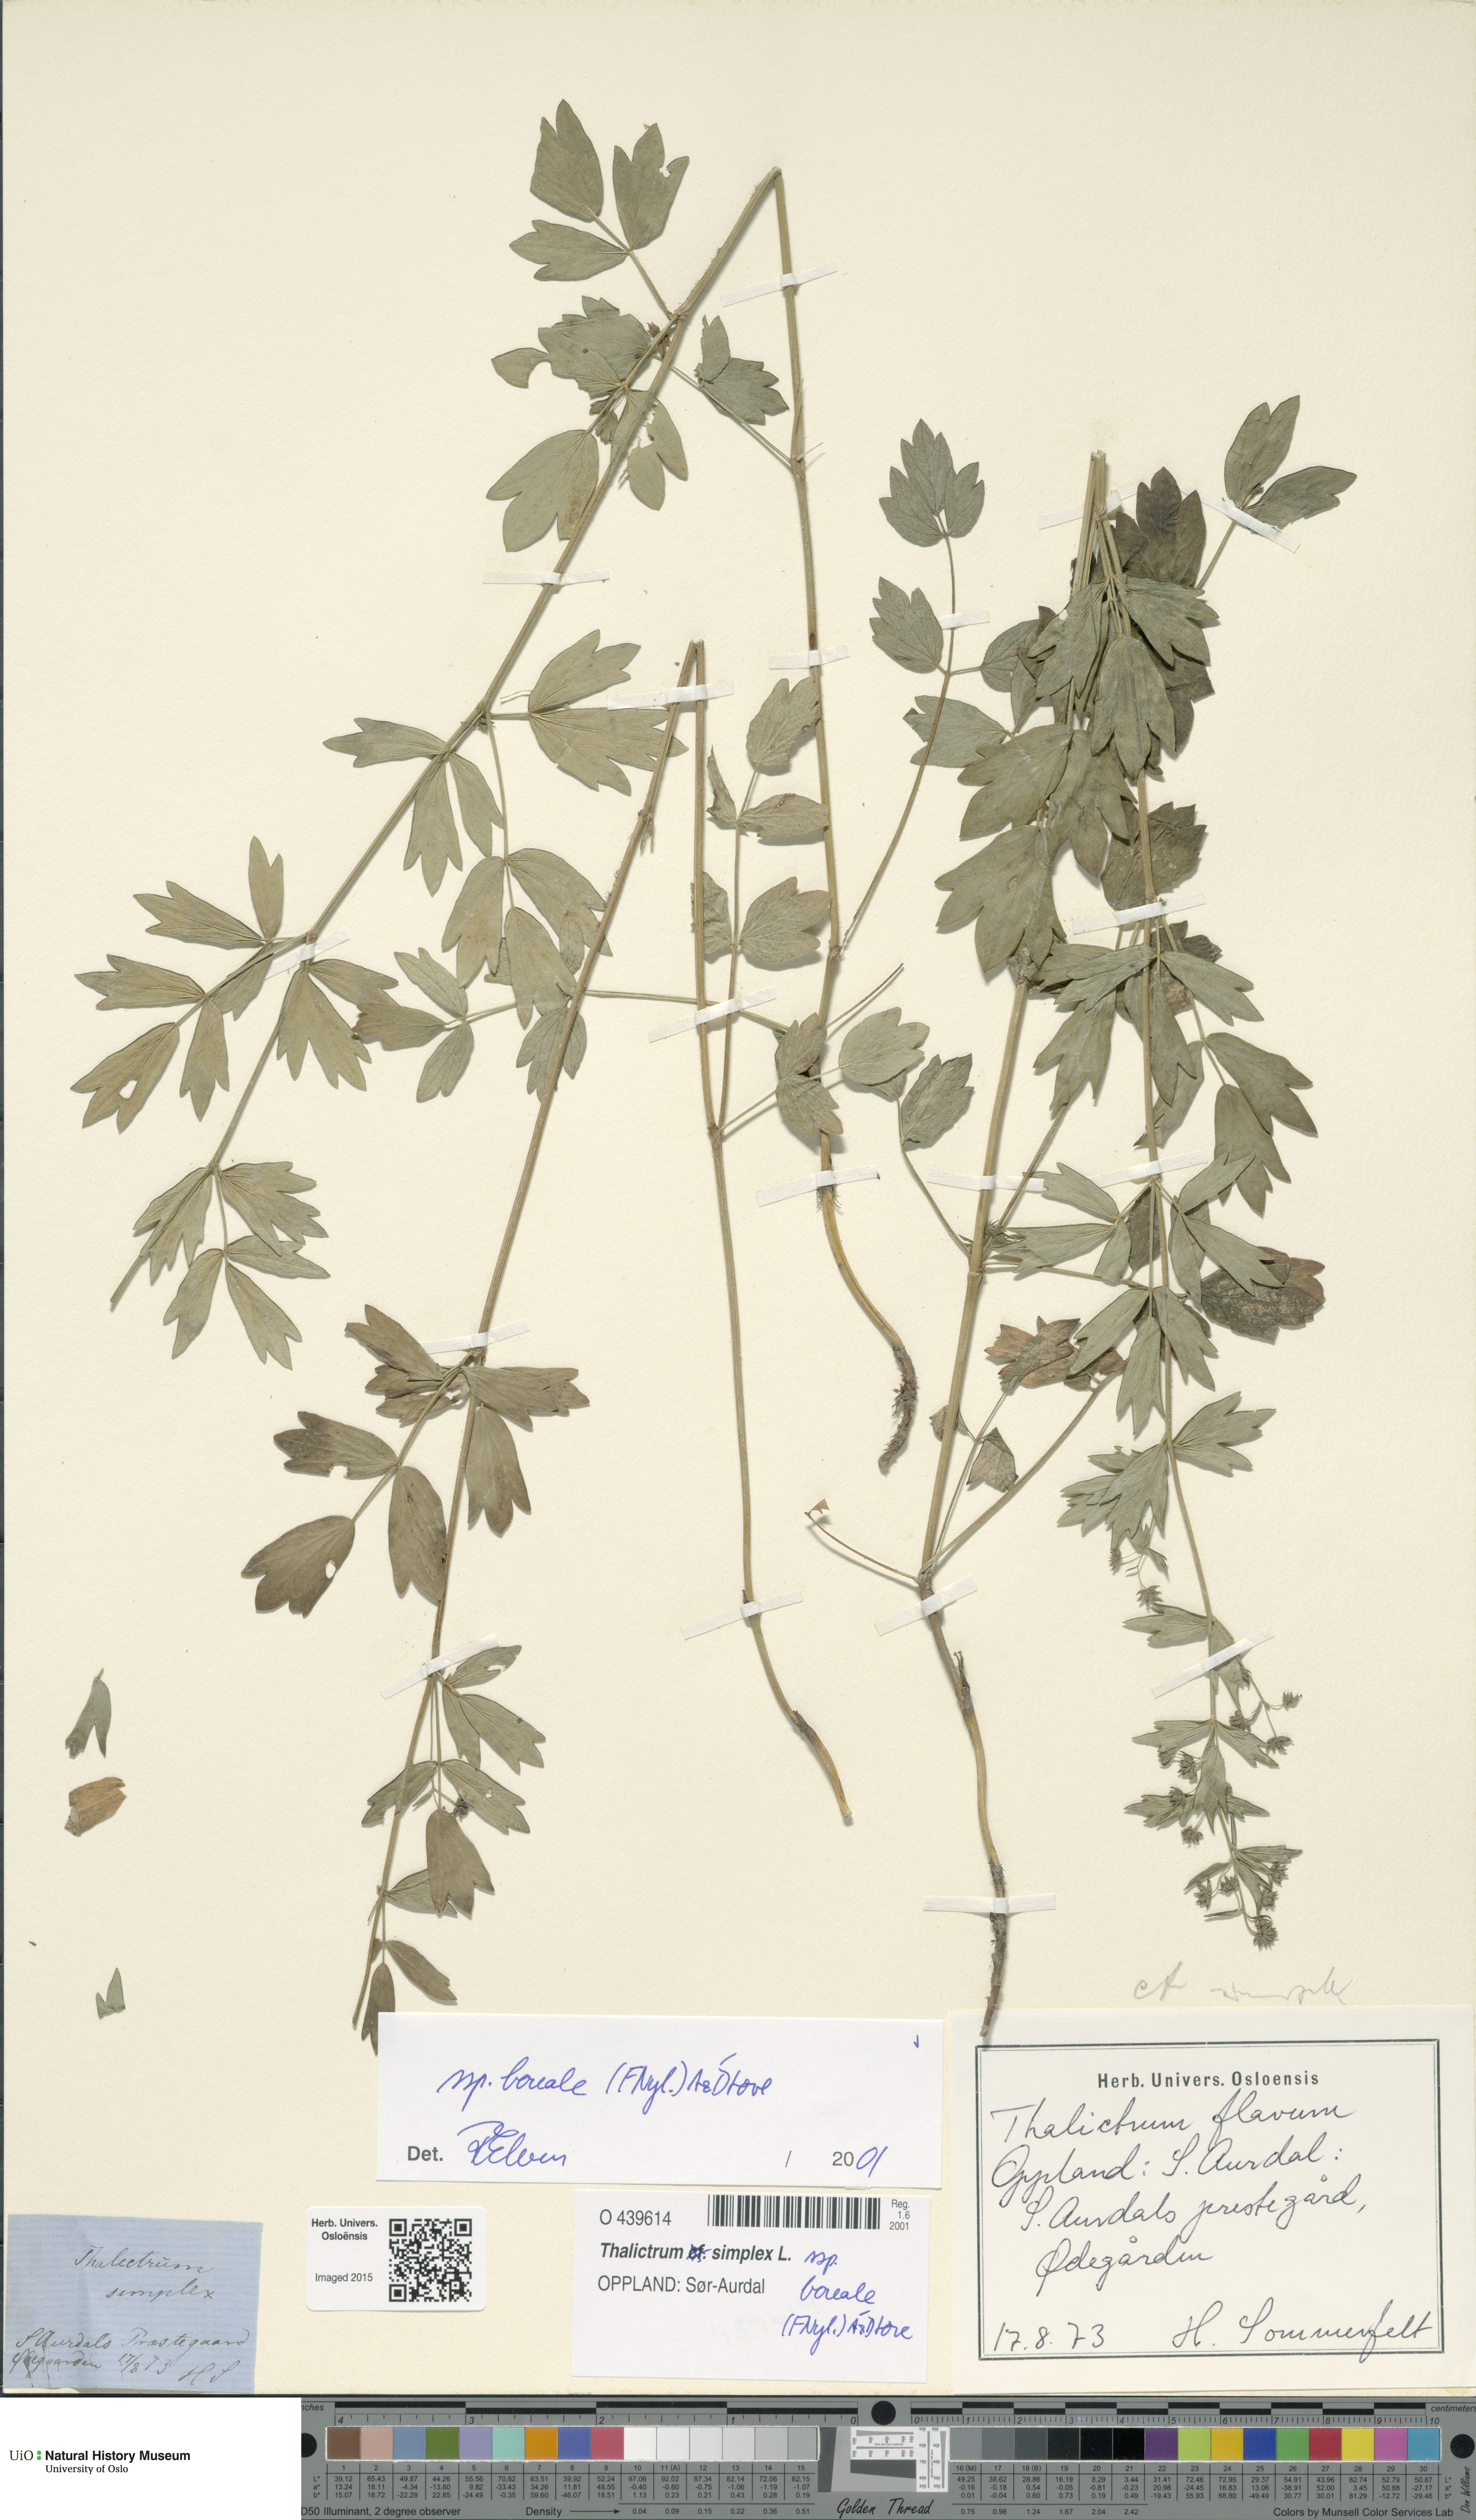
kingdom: Plantae
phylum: Tracheophyta
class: Magnoliopsida
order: Ranunculales
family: Ranunculaceae
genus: Thalictrum
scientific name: Thalictrum simplex
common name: Small meadow-rue
